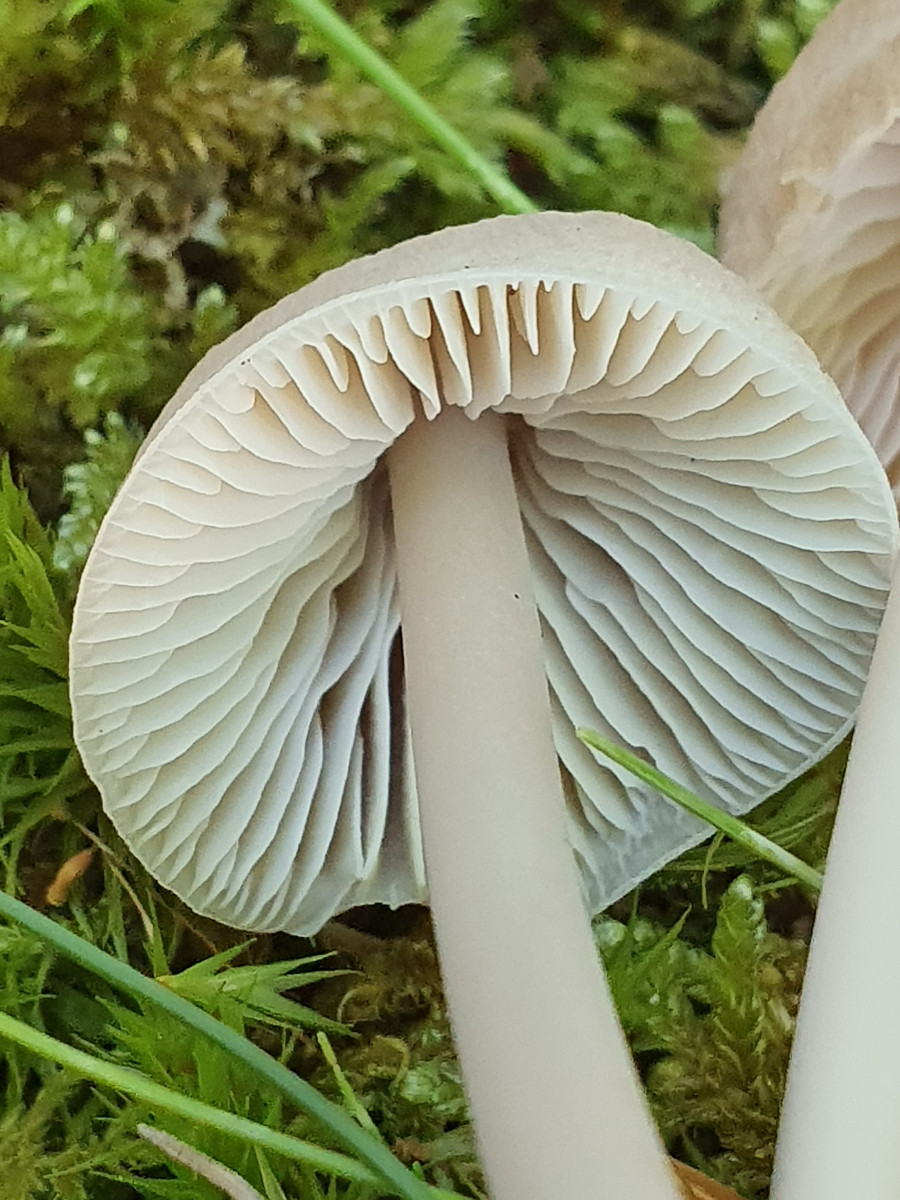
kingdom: Fungi
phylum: Basidiomycota
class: Agaricomycetes
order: Agaricales
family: Mycenaceae
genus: Mycena
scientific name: Mycena galericulata
